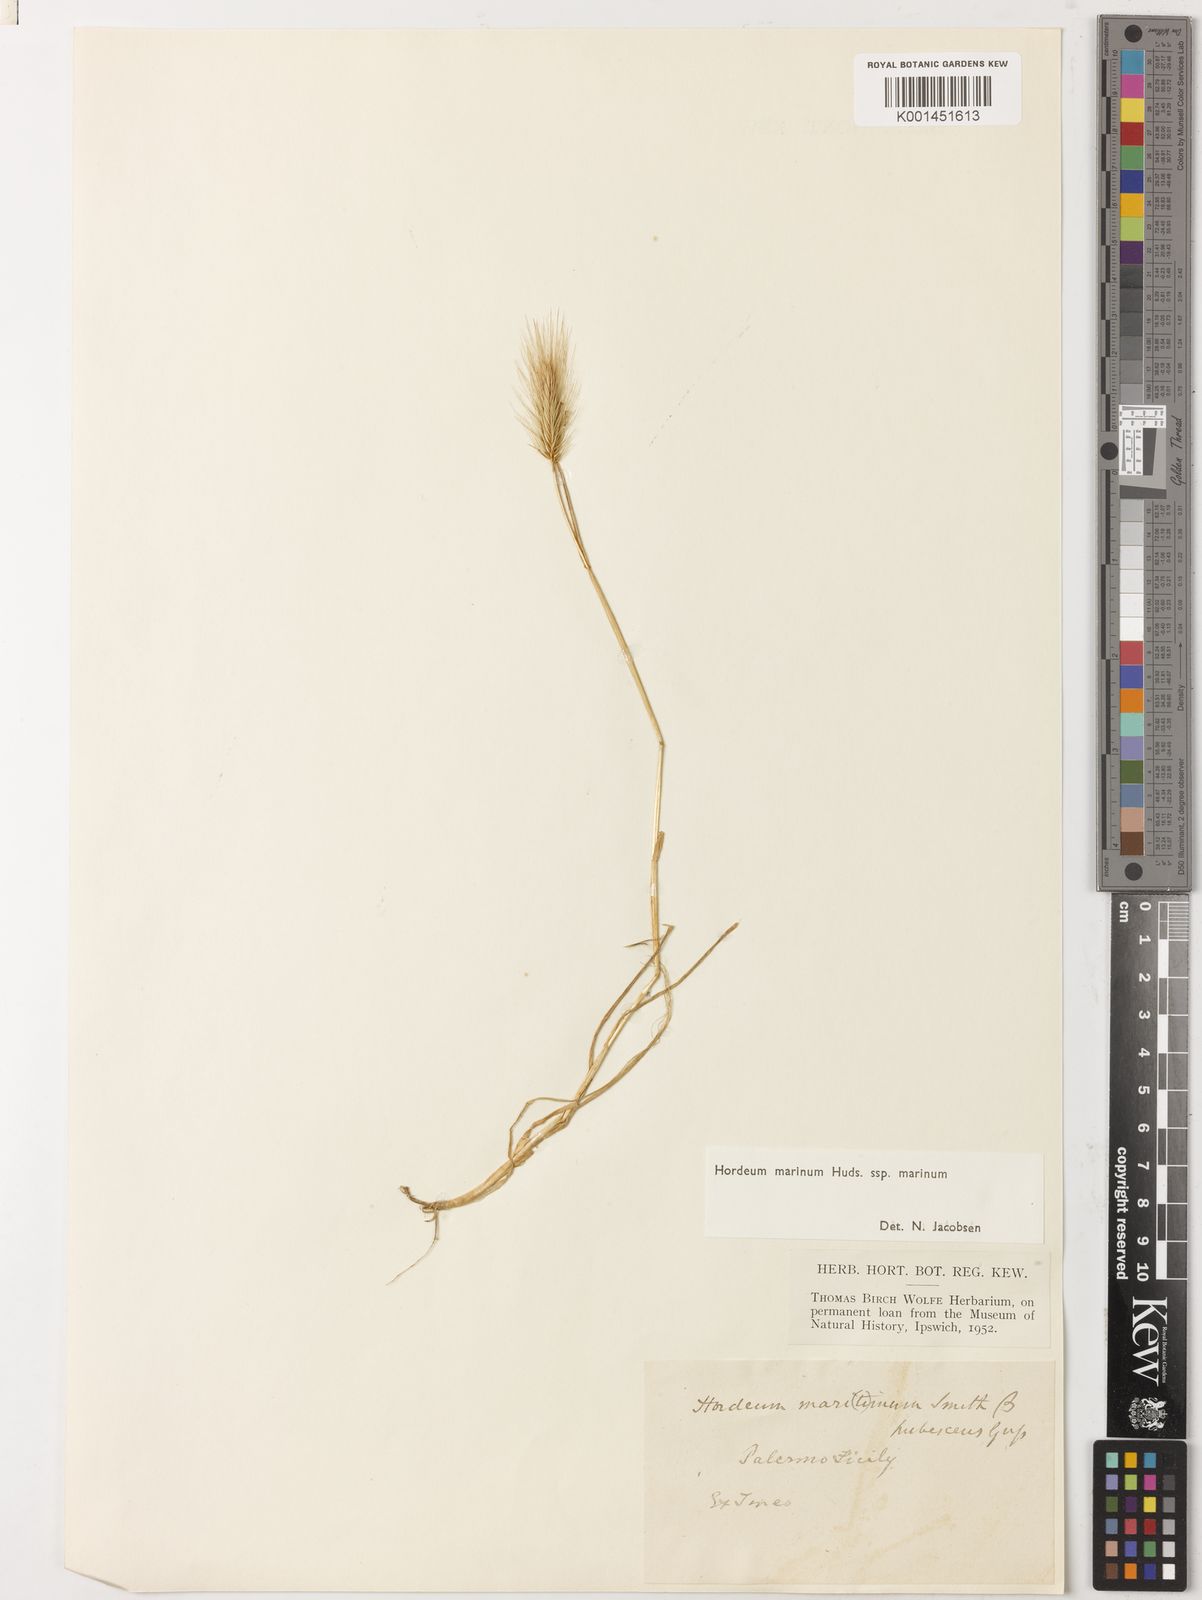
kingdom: Plantae
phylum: Tracheophyta
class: Liliopsida
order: Poales
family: Poaceae
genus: Hordeum
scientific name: Hordeum marinum
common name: Sea barley
